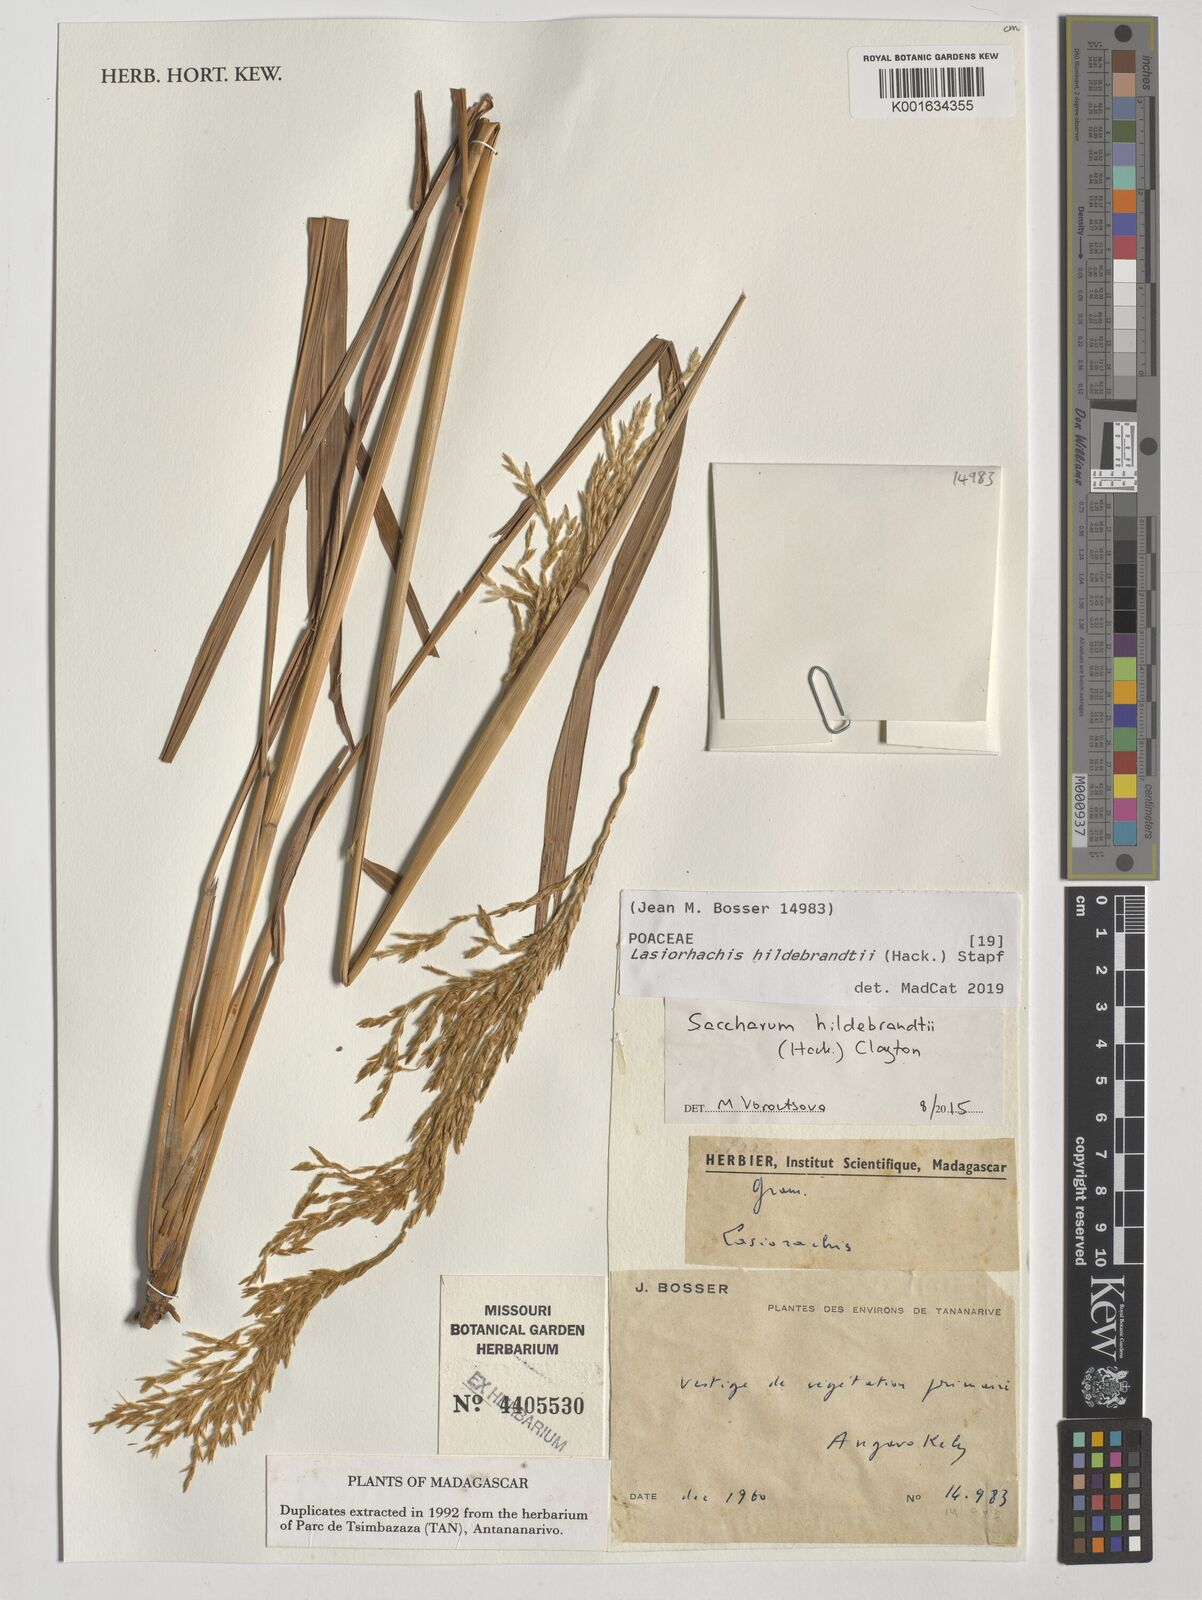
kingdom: Plantae
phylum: Tracheophyta
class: Liliopsida
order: Poales
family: Poaceae
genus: Lasiorhachis
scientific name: Lasiorhachis hildebrandtii
